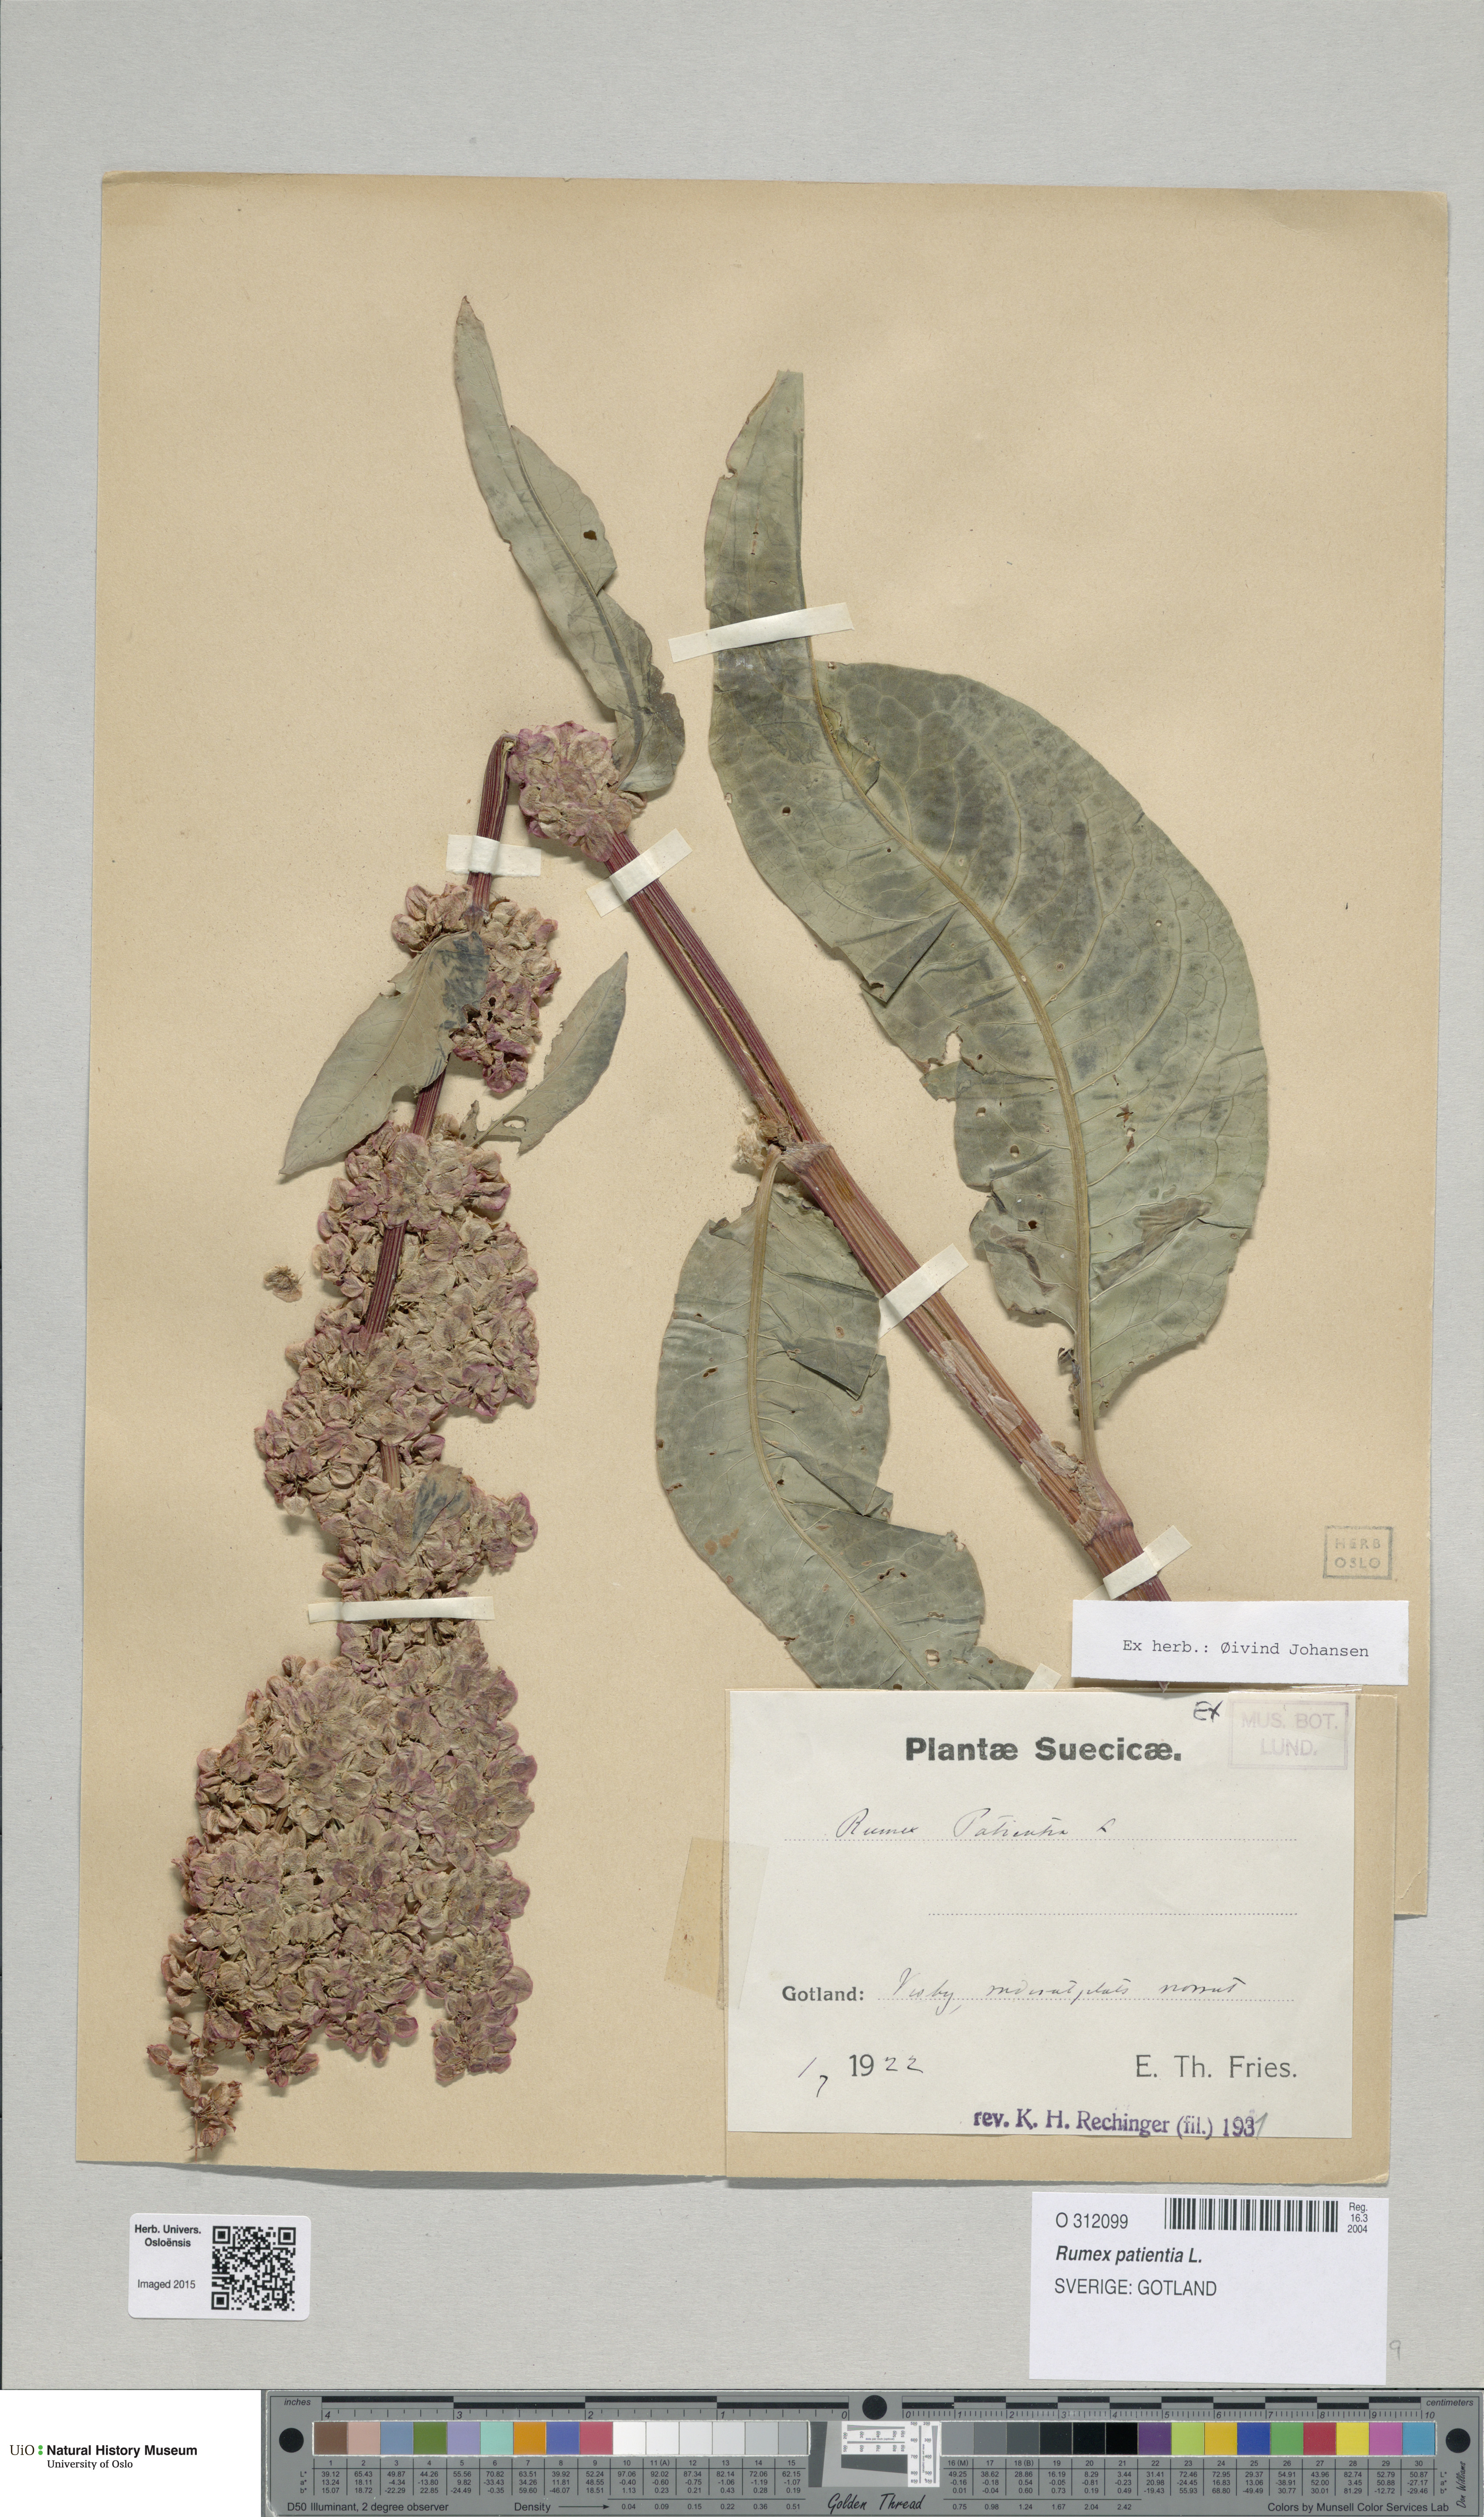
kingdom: Plantae
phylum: Tracheophyta
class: Magnoliopsida
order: Caryophyllales
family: Polygonaceae
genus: Rumex
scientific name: Rumex patientia
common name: Patience dock
